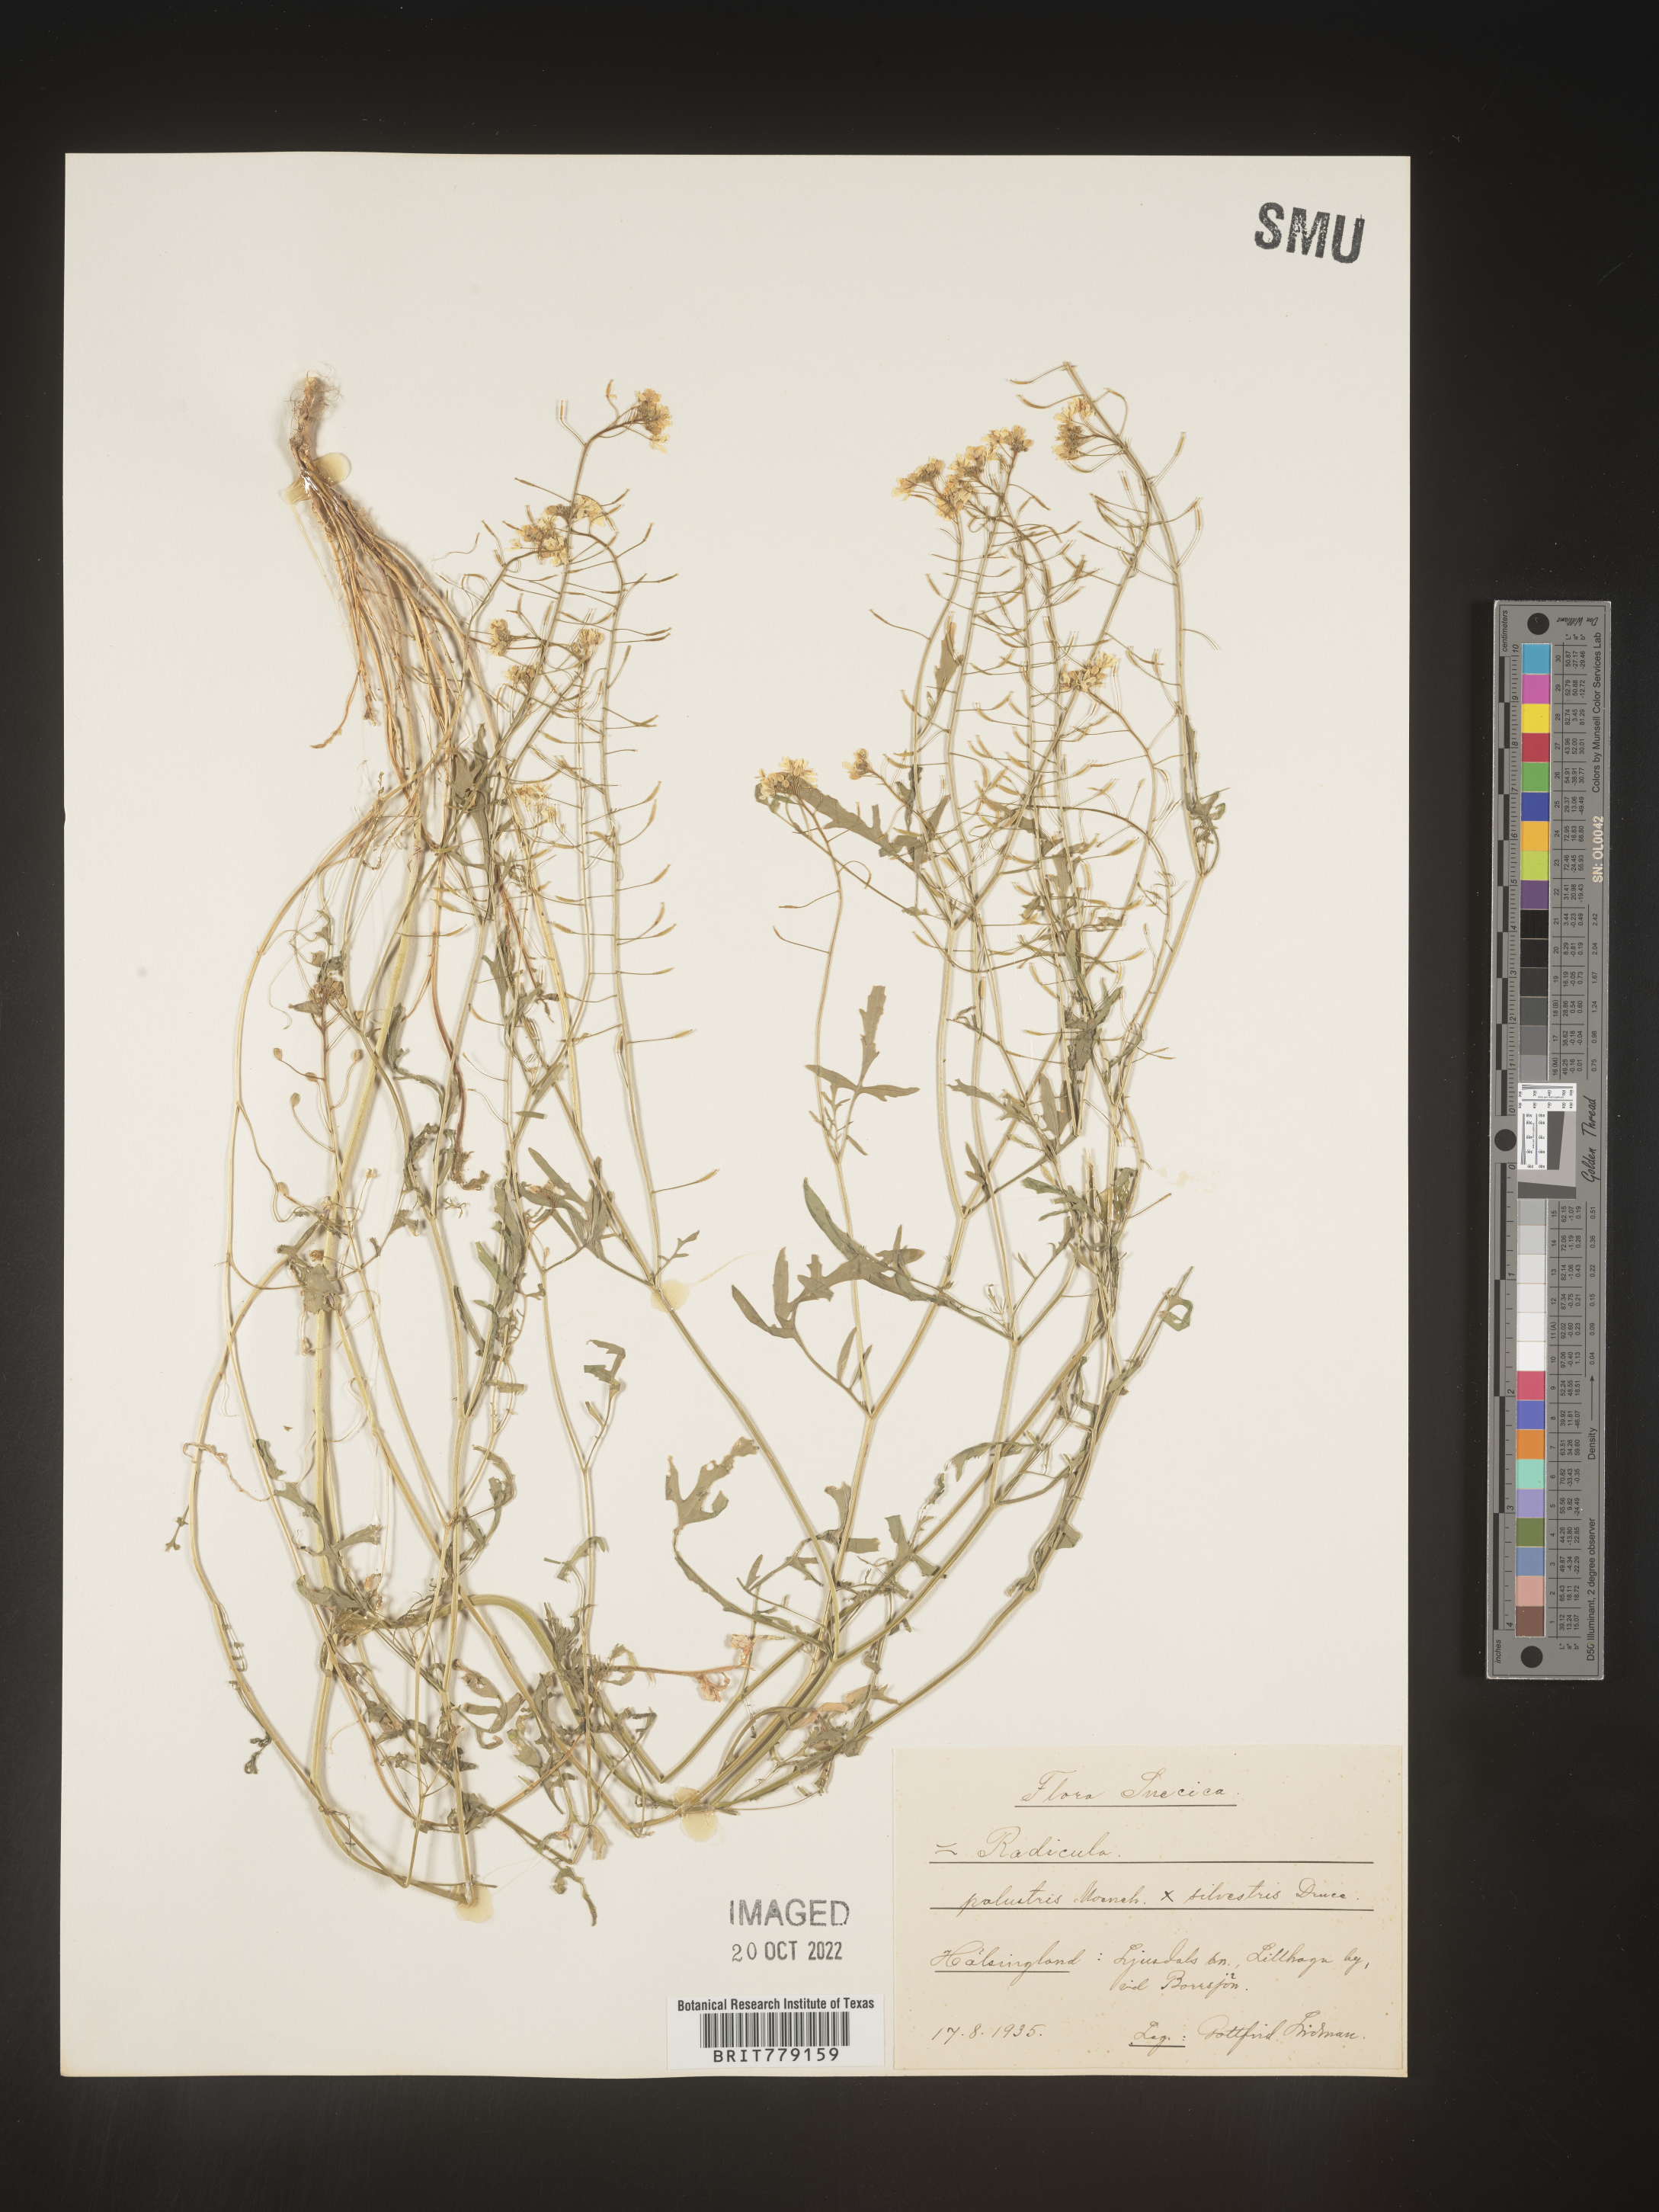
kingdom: Plantae
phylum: Tracheophyta
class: Magnoliopsida
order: Brassicales
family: Brassicaceae
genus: Rorippa
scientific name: Rorippa
